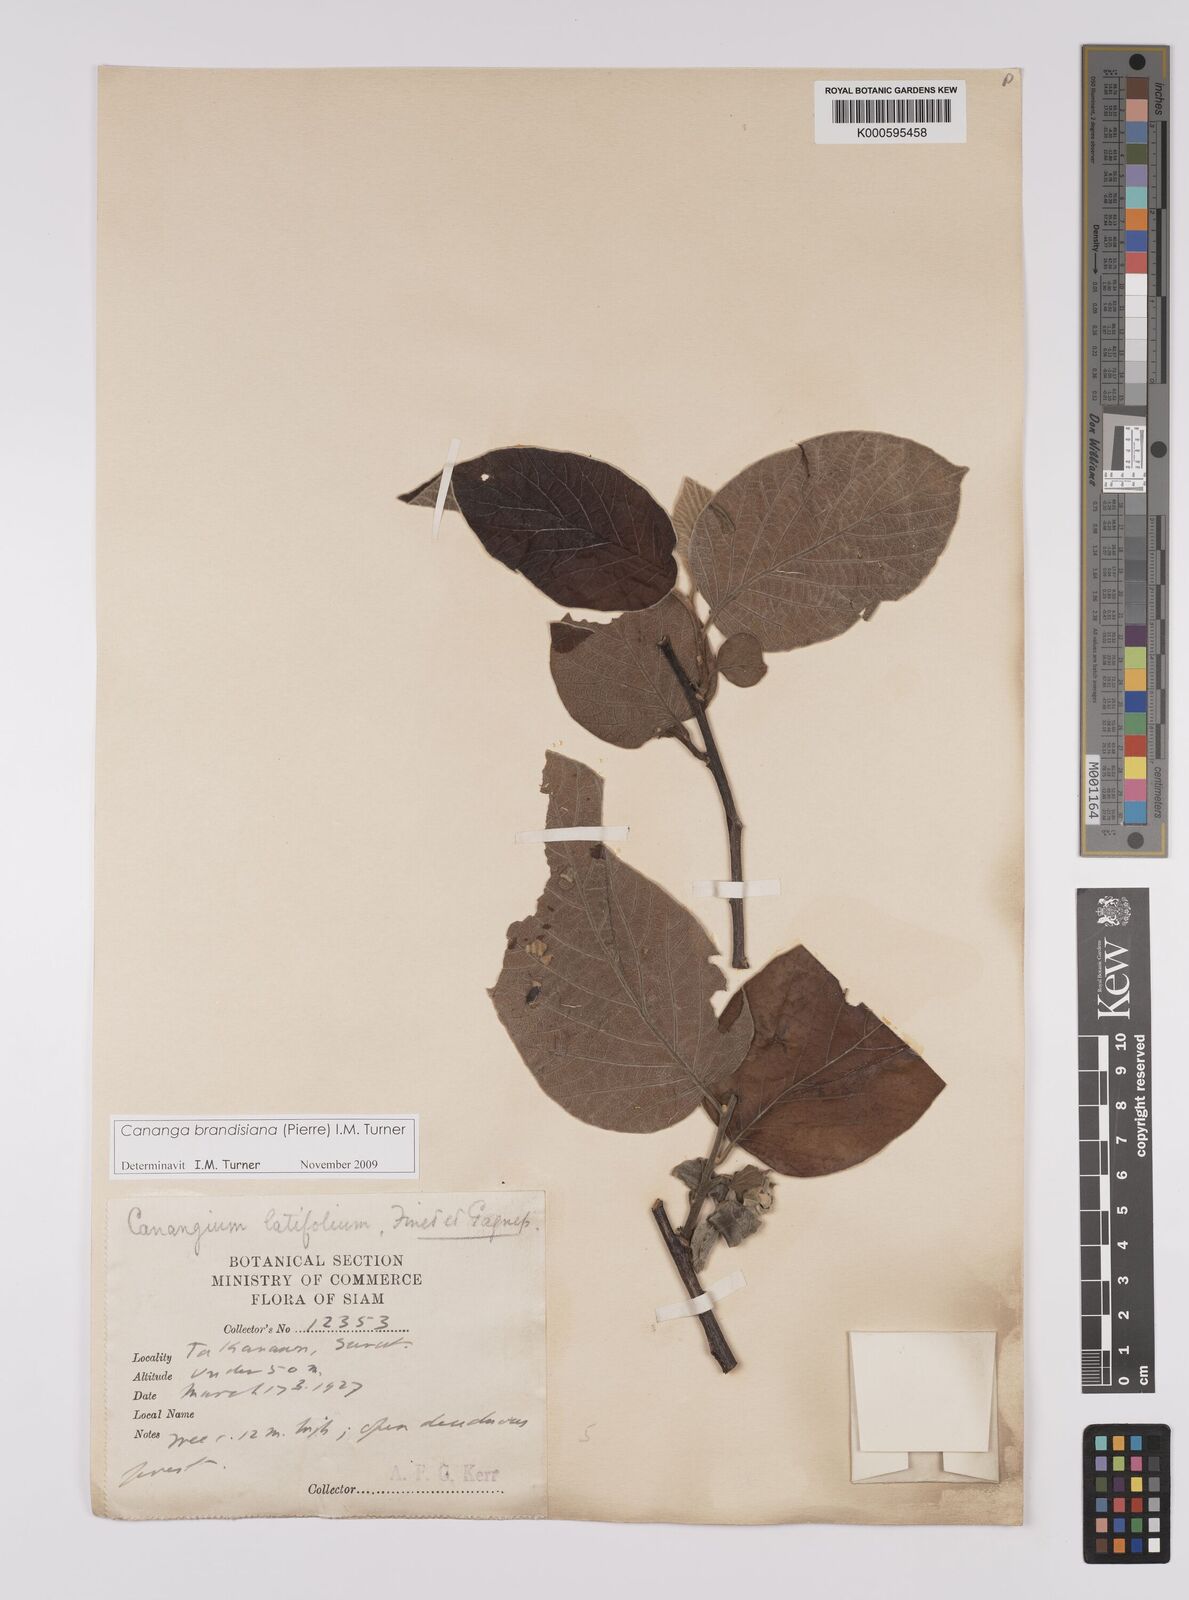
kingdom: Plantae
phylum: Tracheophyta
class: Magnoliopsida
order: Magnoliales
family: Annonaceae
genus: Cananga
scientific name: Cananga brandisiana
